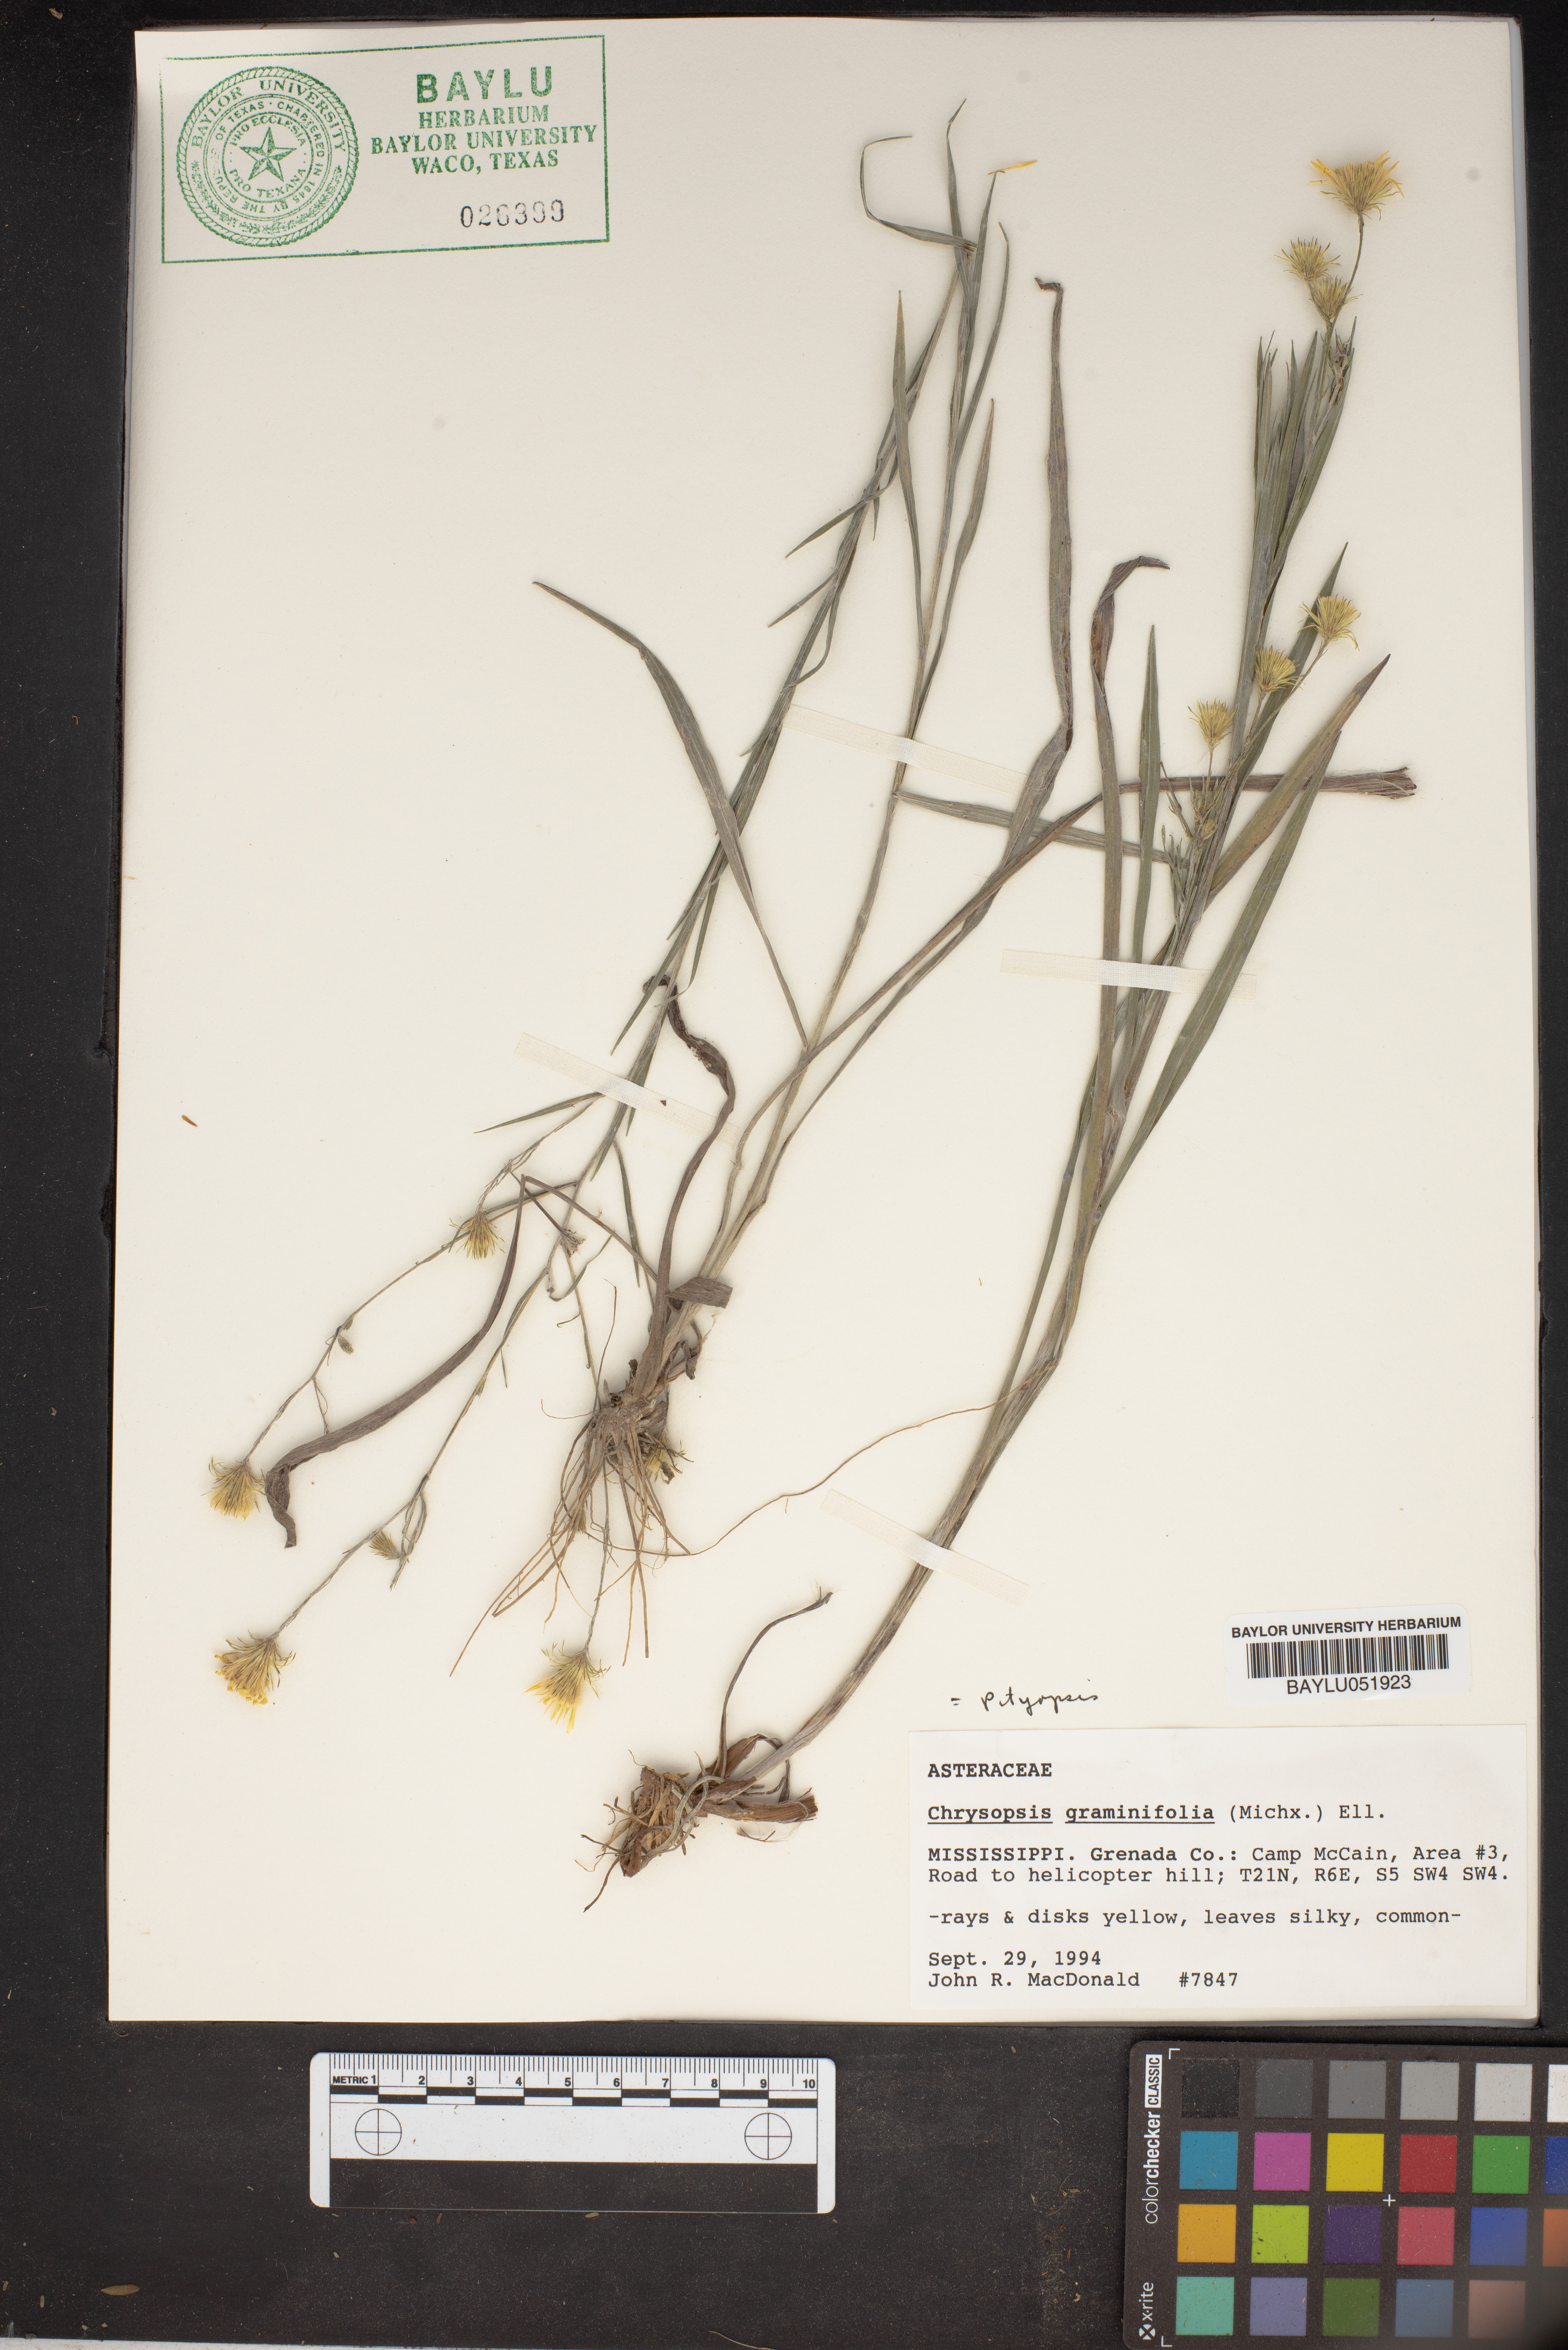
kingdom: Plantae
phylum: Tracheophyta
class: Magnoliopsida
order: Asterales
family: Asteraceae
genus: Pityopsis
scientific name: Pityopsis graminifolia
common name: Grass-leaf golden-aster
